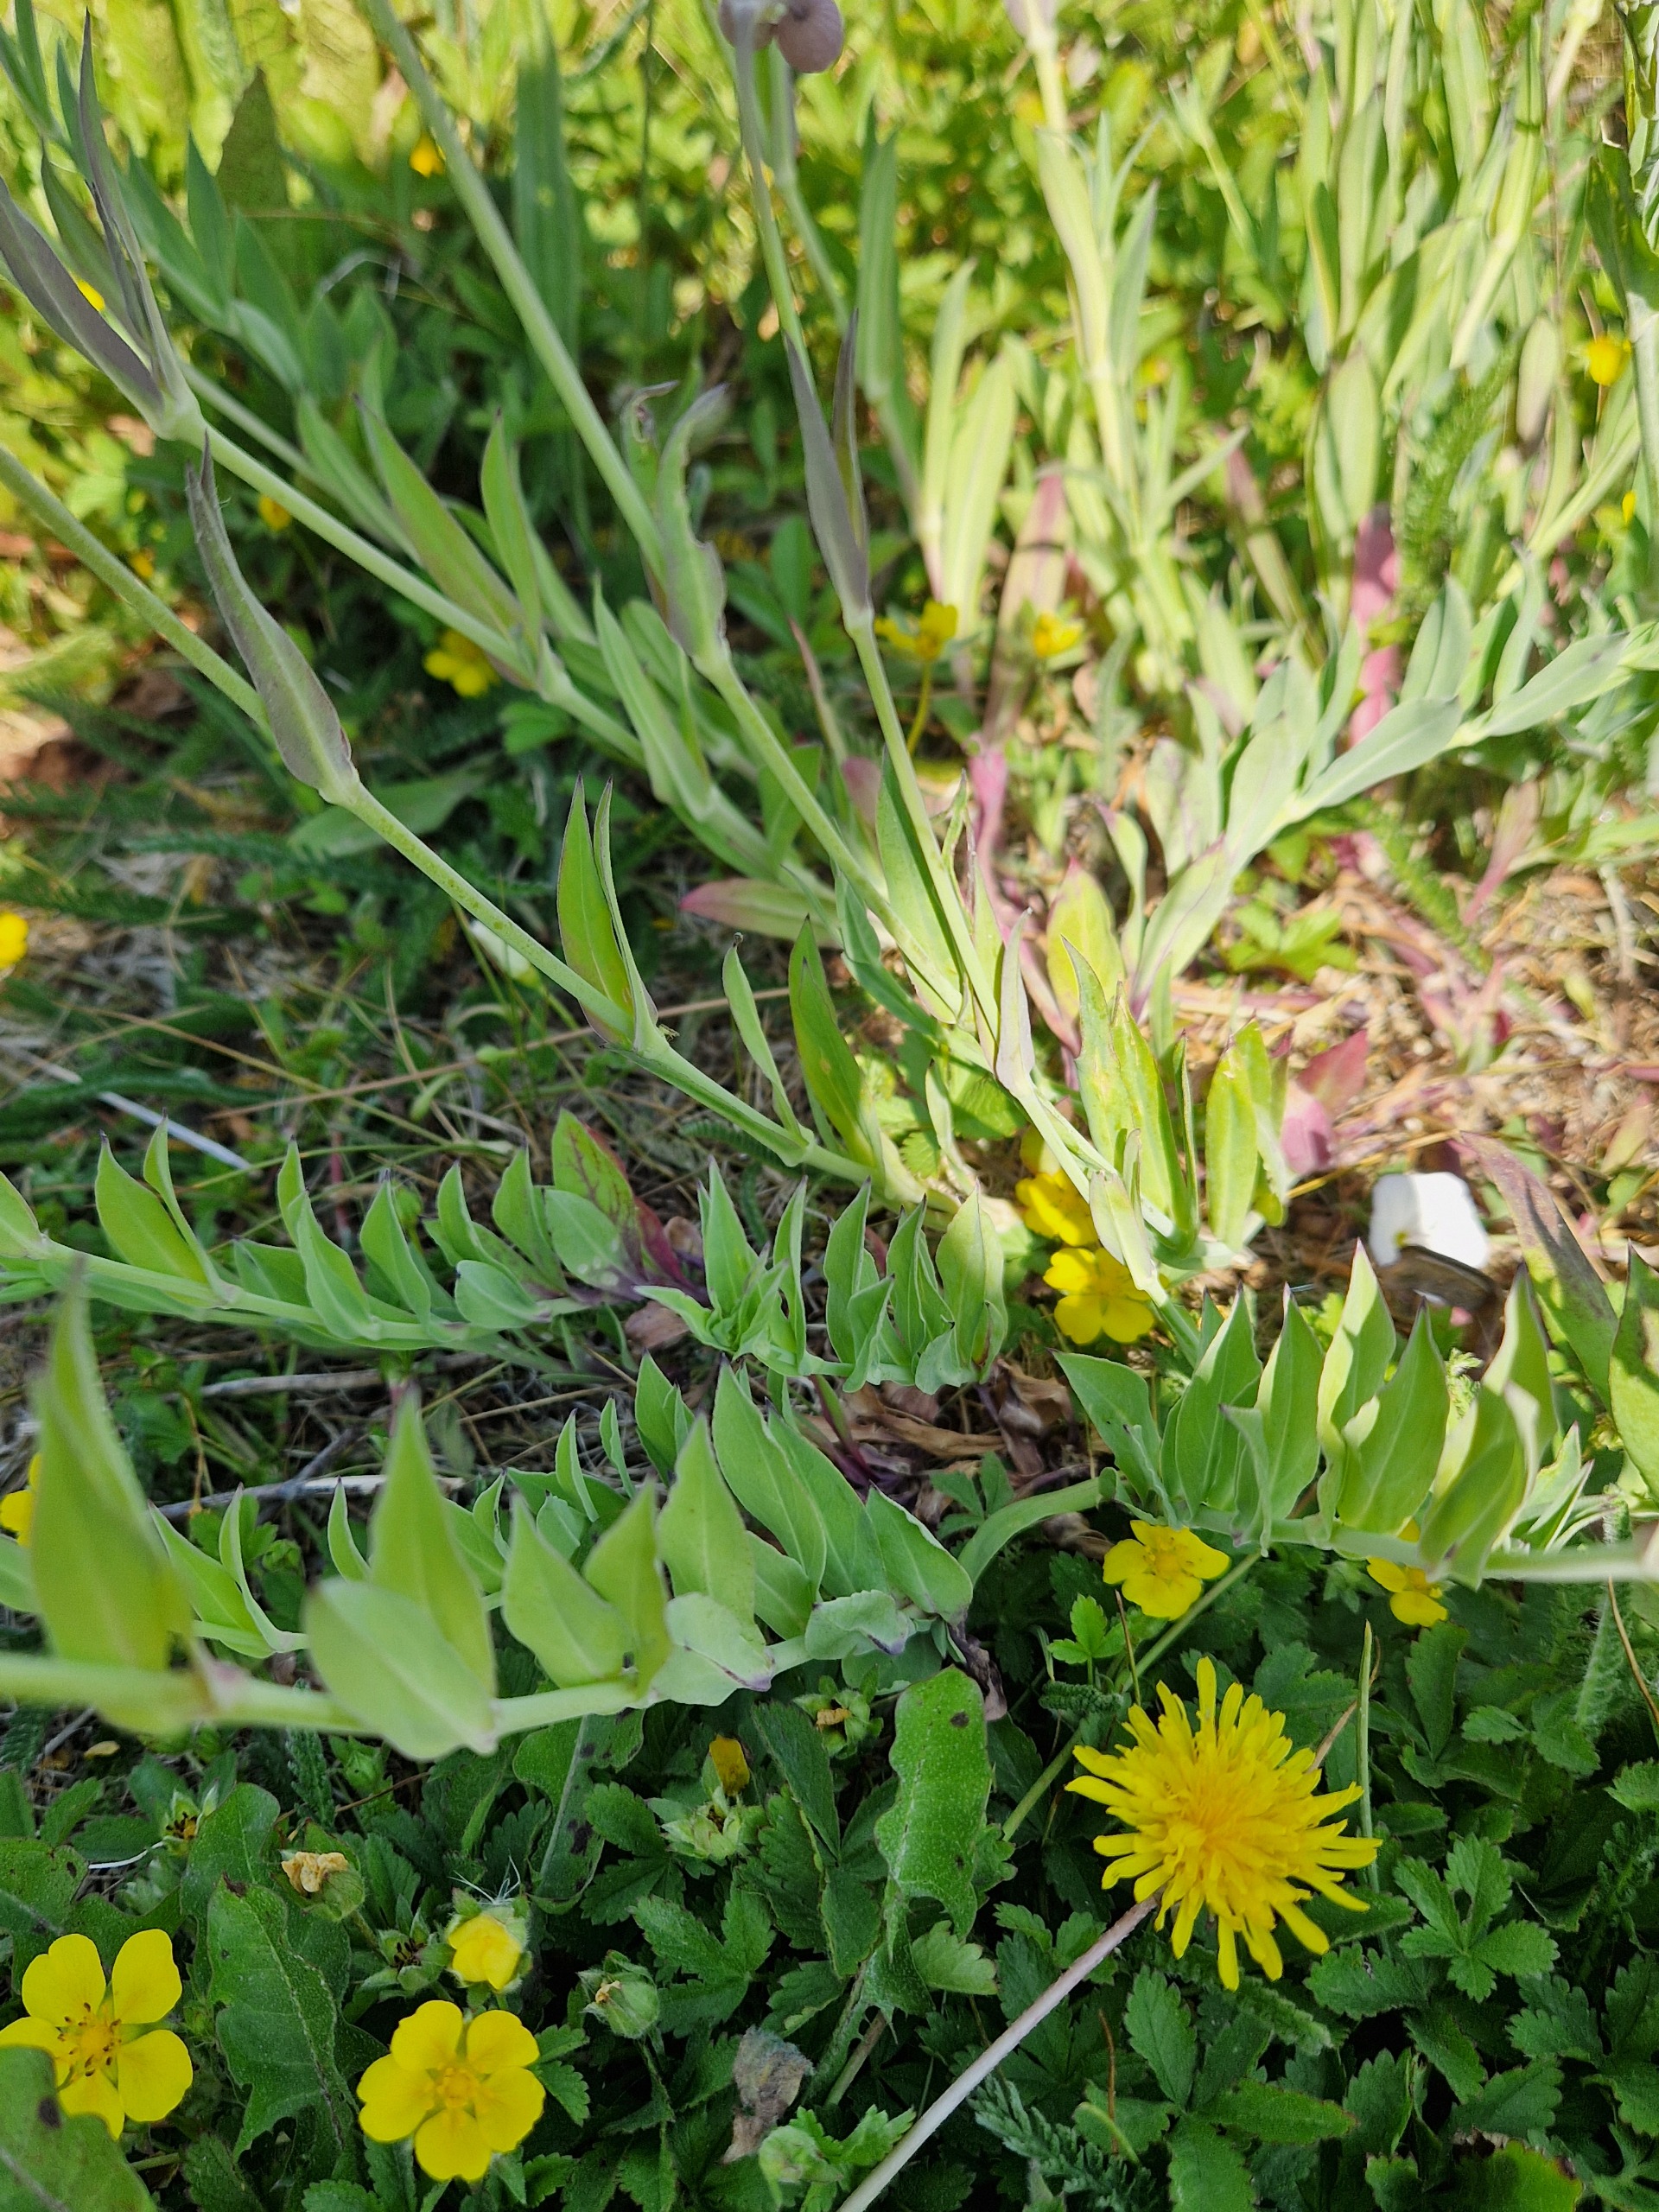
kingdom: Plantae
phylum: Tracheophyta
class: Magnoliopsida
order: Caryophyllales
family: Caryophyllaceae
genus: Silene
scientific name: Silene vulgaris
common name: Blæresmælde
